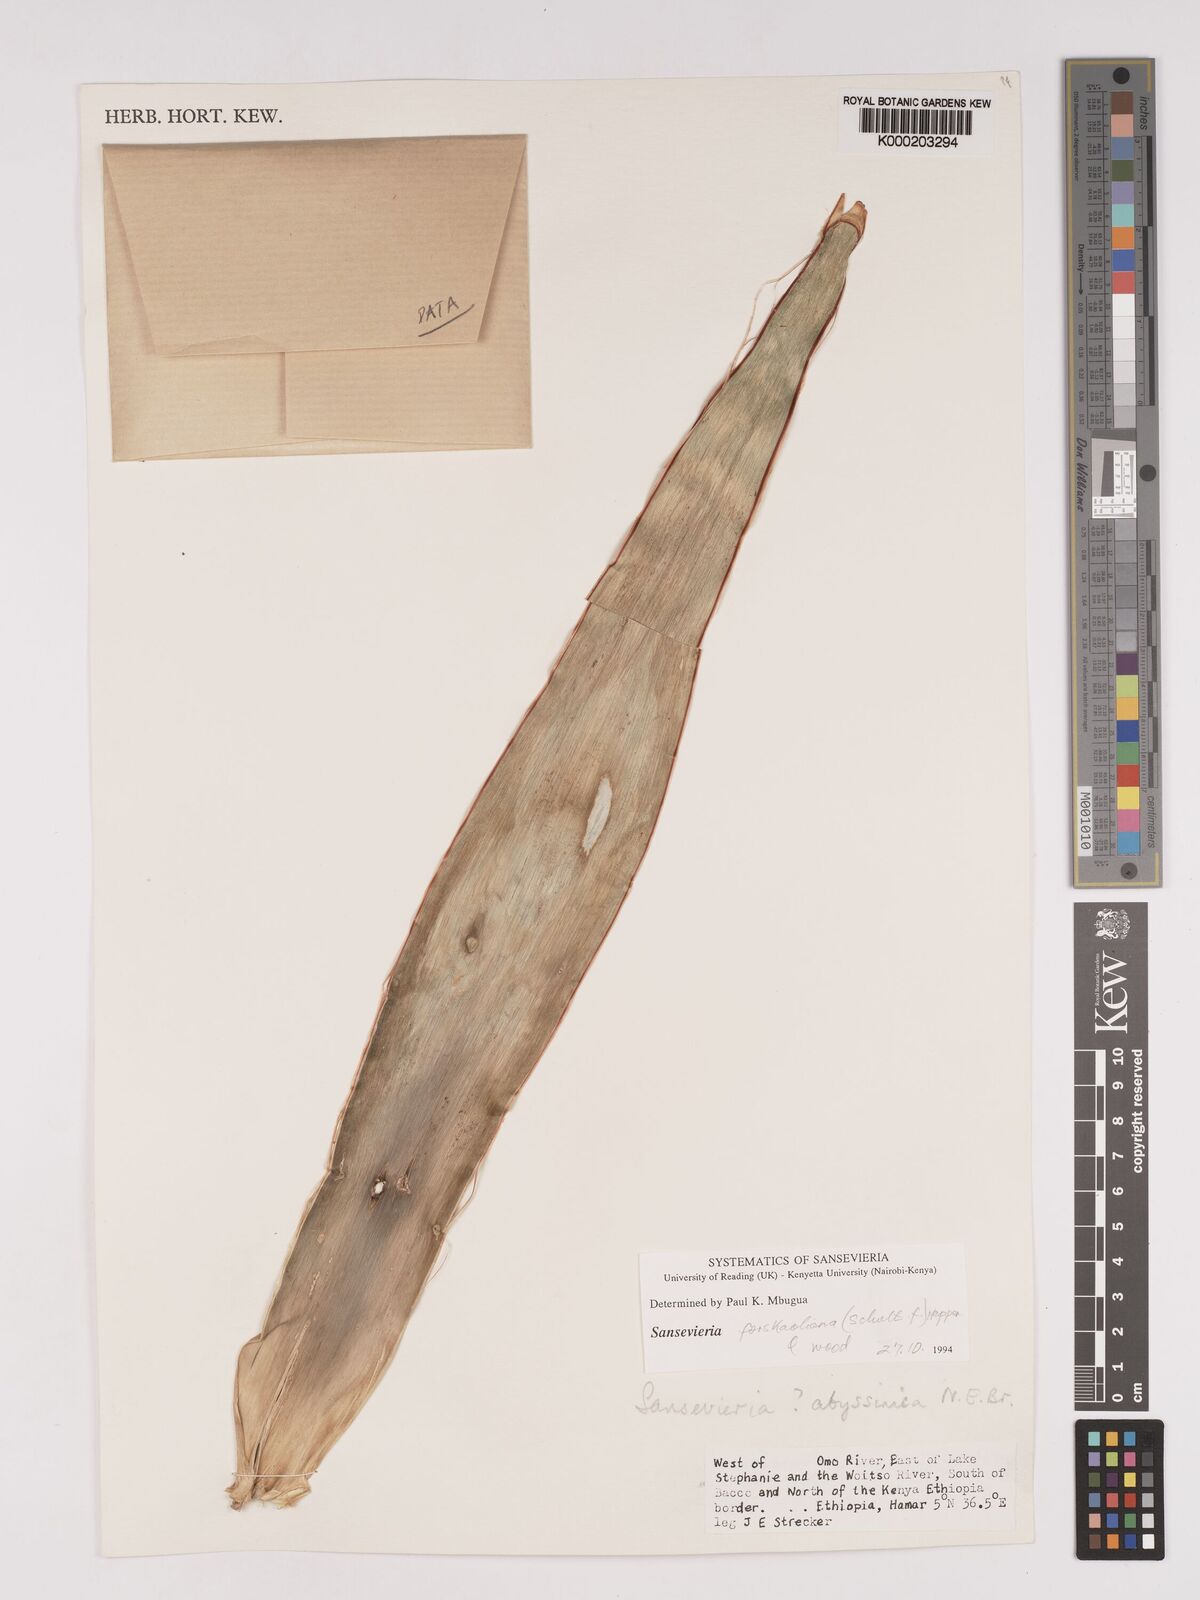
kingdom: Plantae
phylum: Tracheophyta
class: Liliopsida
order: Asparagales
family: Asparagaceae
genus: Dracaena
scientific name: Dracaena forskaliana
